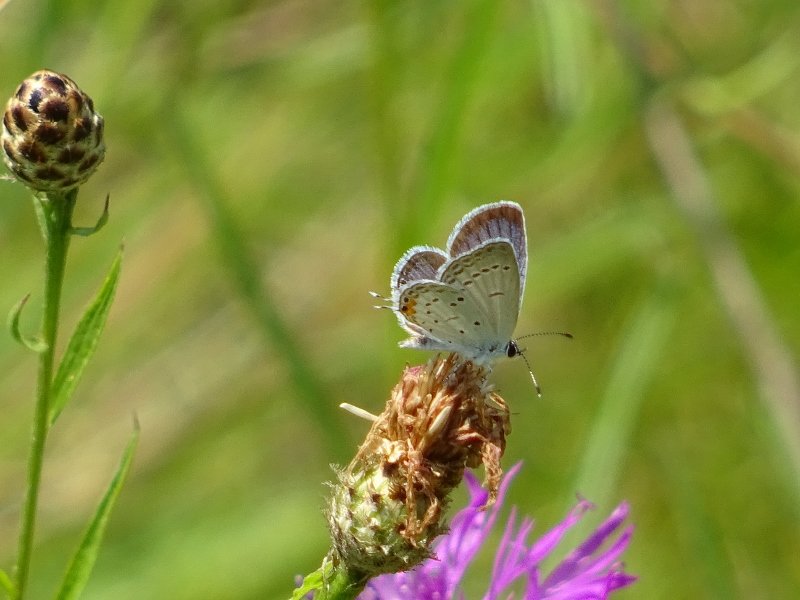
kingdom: Animalia
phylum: Arthropoda
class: Insecta
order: Lepidoptera
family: Lycaenidae
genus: Elkalyce
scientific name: Elkalyce comyntas
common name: Eastern Tailed-Blue
